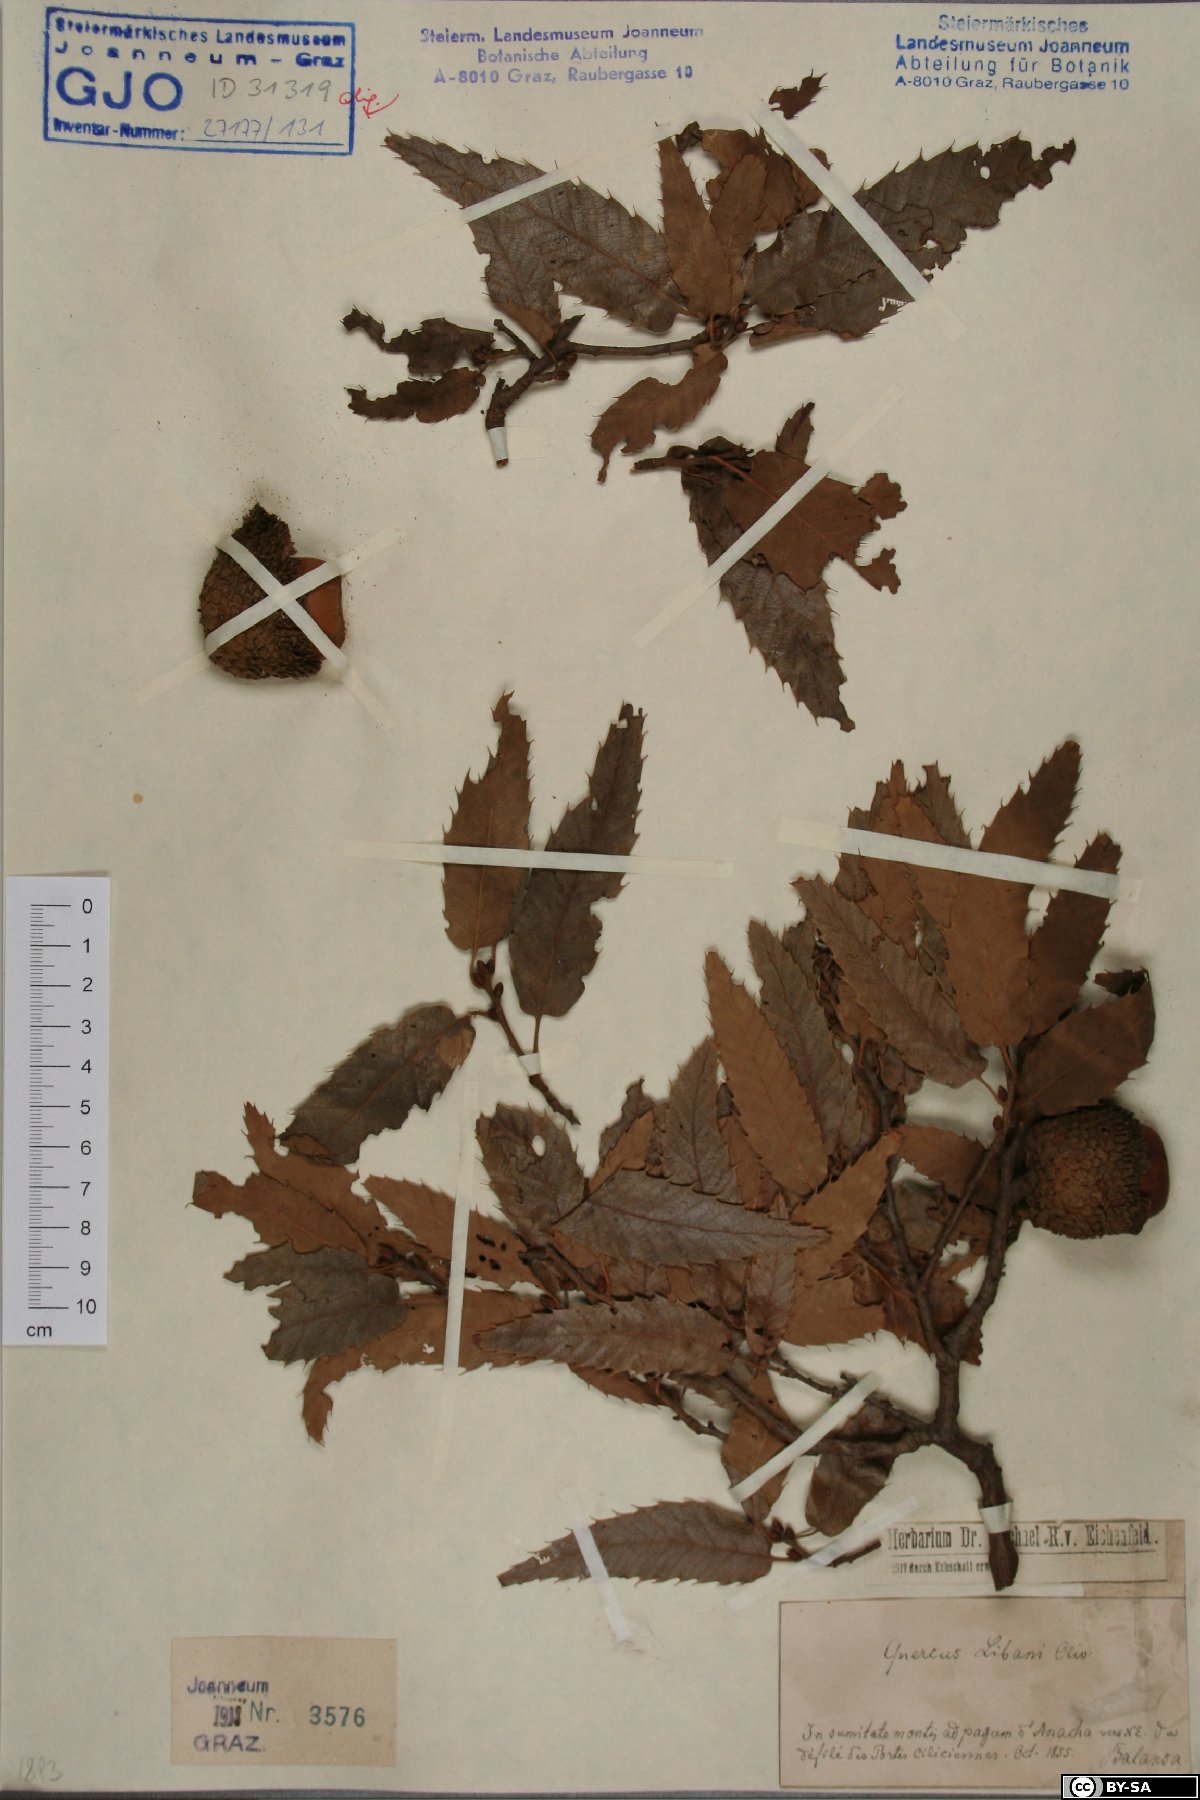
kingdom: Plantae
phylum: Tracheophyta
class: Magnoliopsida
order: Fagales
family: Fagaceae
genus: Quercus
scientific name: Quercus libani
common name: Lebanon oak
